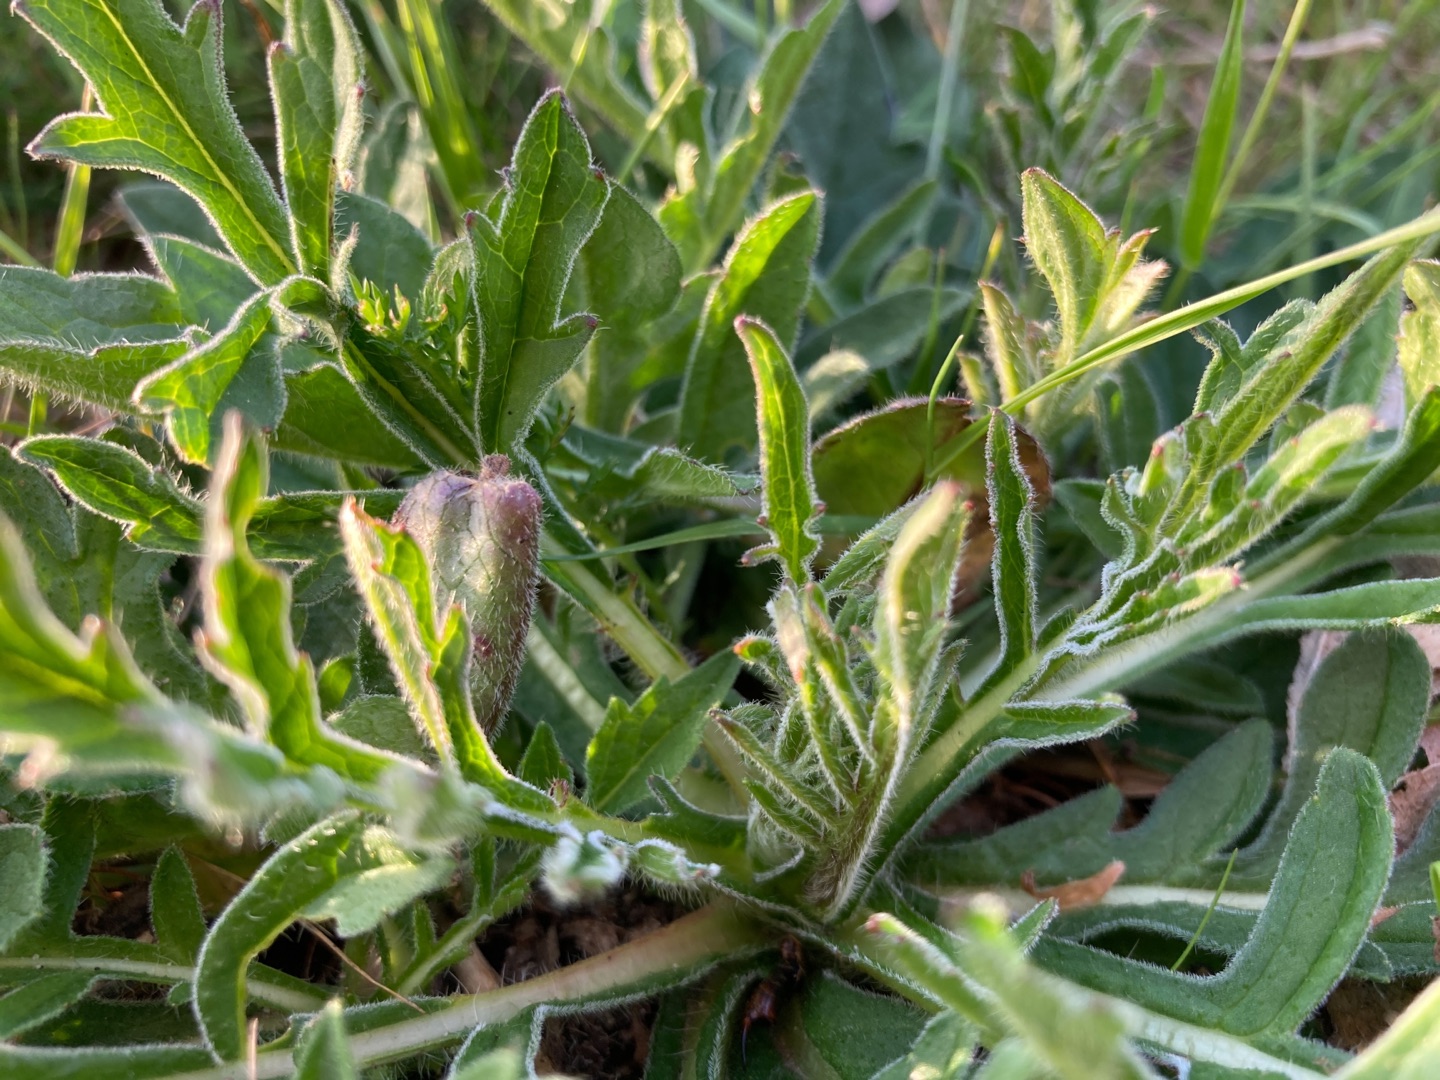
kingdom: Plantae
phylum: Tracheophyta
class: Magnoliopsida
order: Dipsacales
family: Caprifoliaceae
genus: Knautia
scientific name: Knautia arvensis
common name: Blåhat
